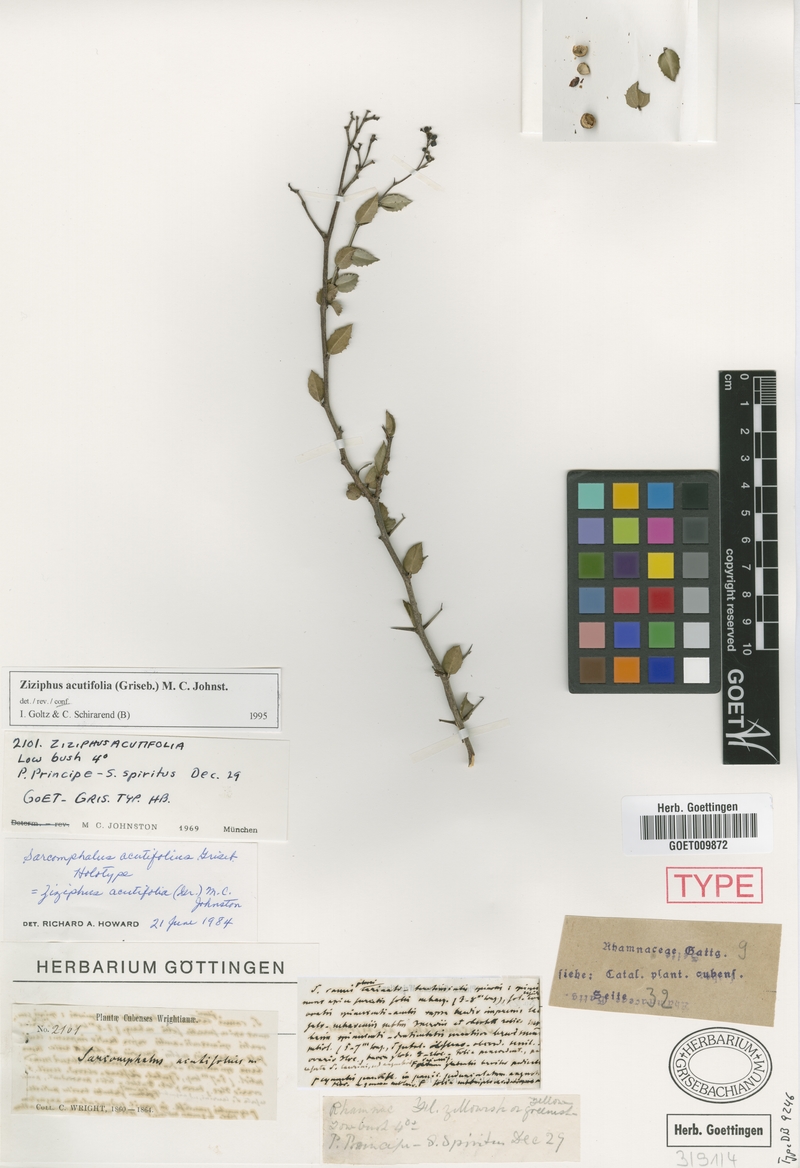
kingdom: Plantae
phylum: Tracheophyta
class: Magnoliopsida
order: Rosales
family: Rhamnaceae
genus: Sarcomphalus
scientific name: Sarcomphalus acutifolius
